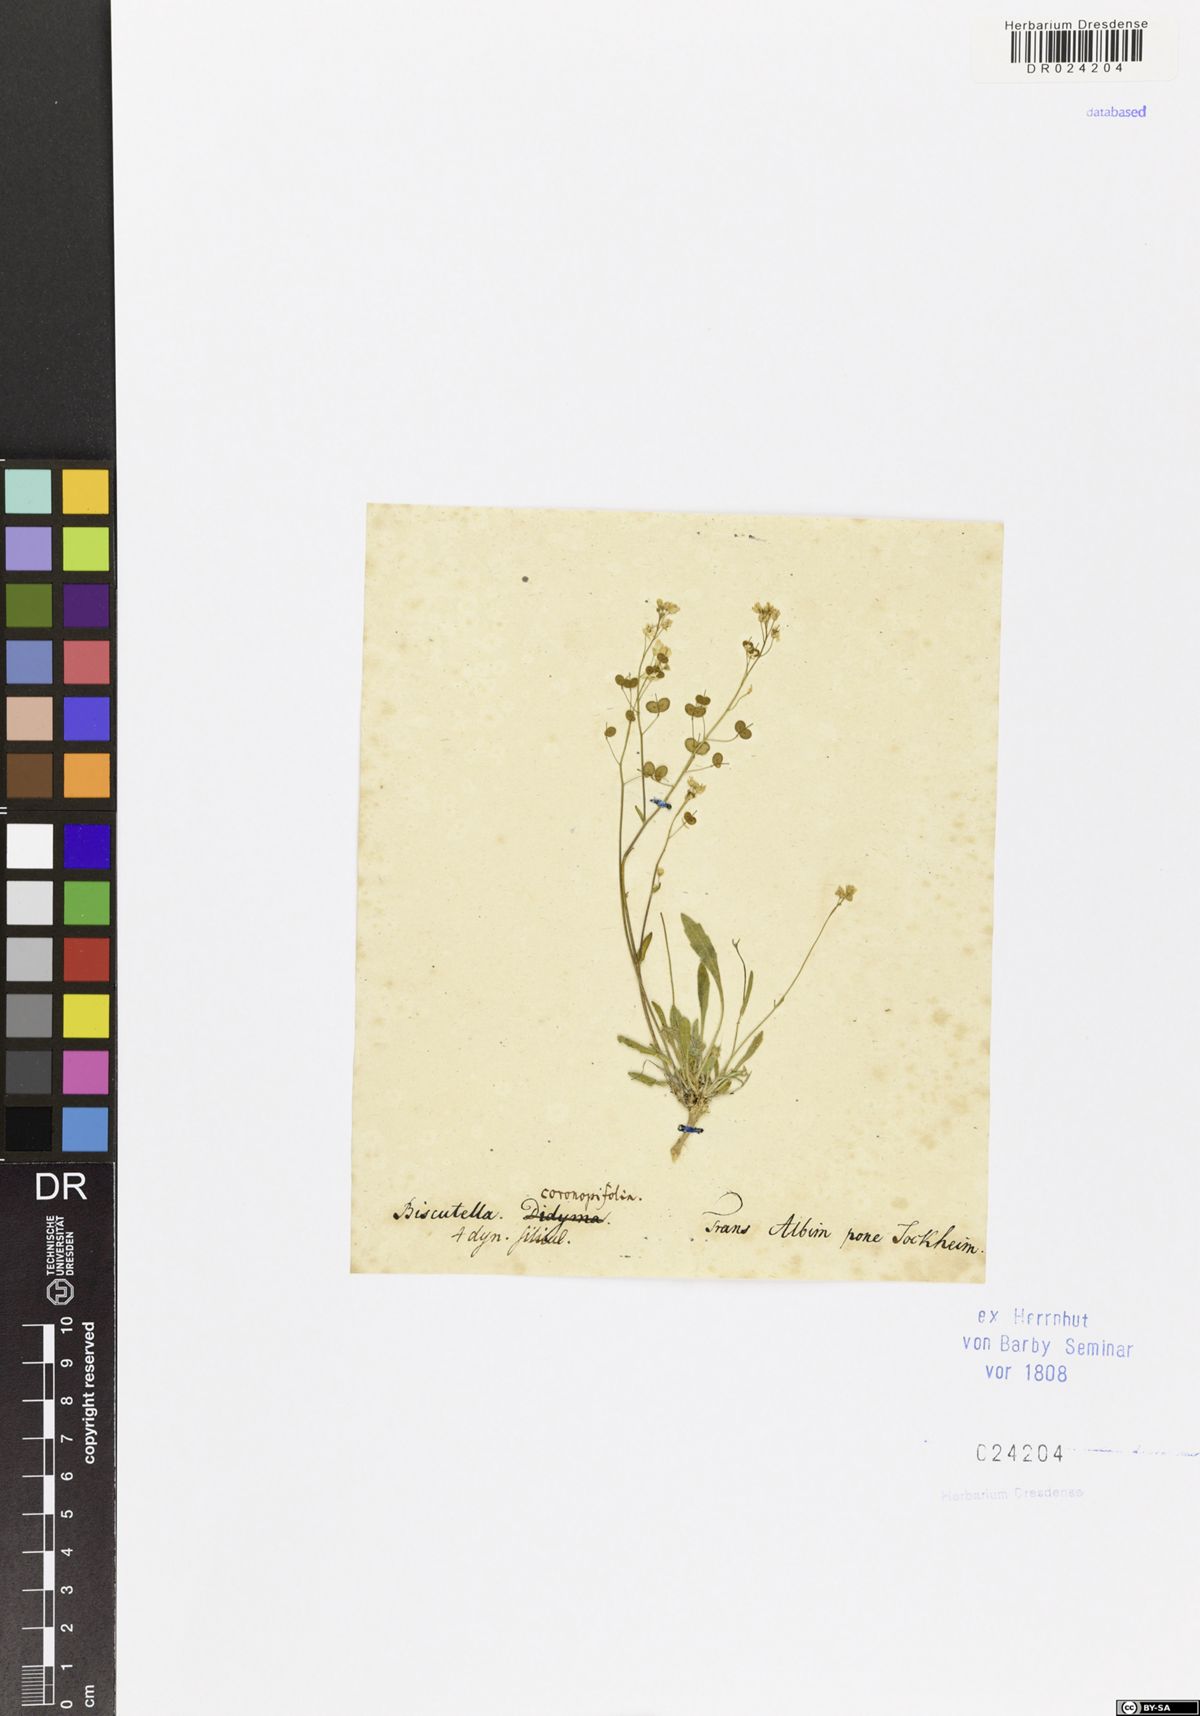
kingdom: Plantae
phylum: Tracheophyta
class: Magnoliopsida
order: Brassicales
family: Brassicaceae
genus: Biscutella
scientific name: Biscutella laevigata
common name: Buckler mustard
